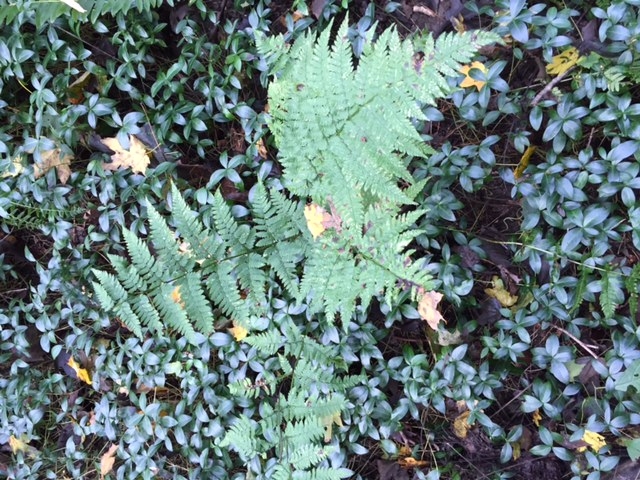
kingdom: Plantae
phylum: Tracheophyta
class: Polypodiopsida
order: Polypodiales
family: Dryopteridaceae
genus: Dryopteris
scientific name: Dryopteris intermedia
